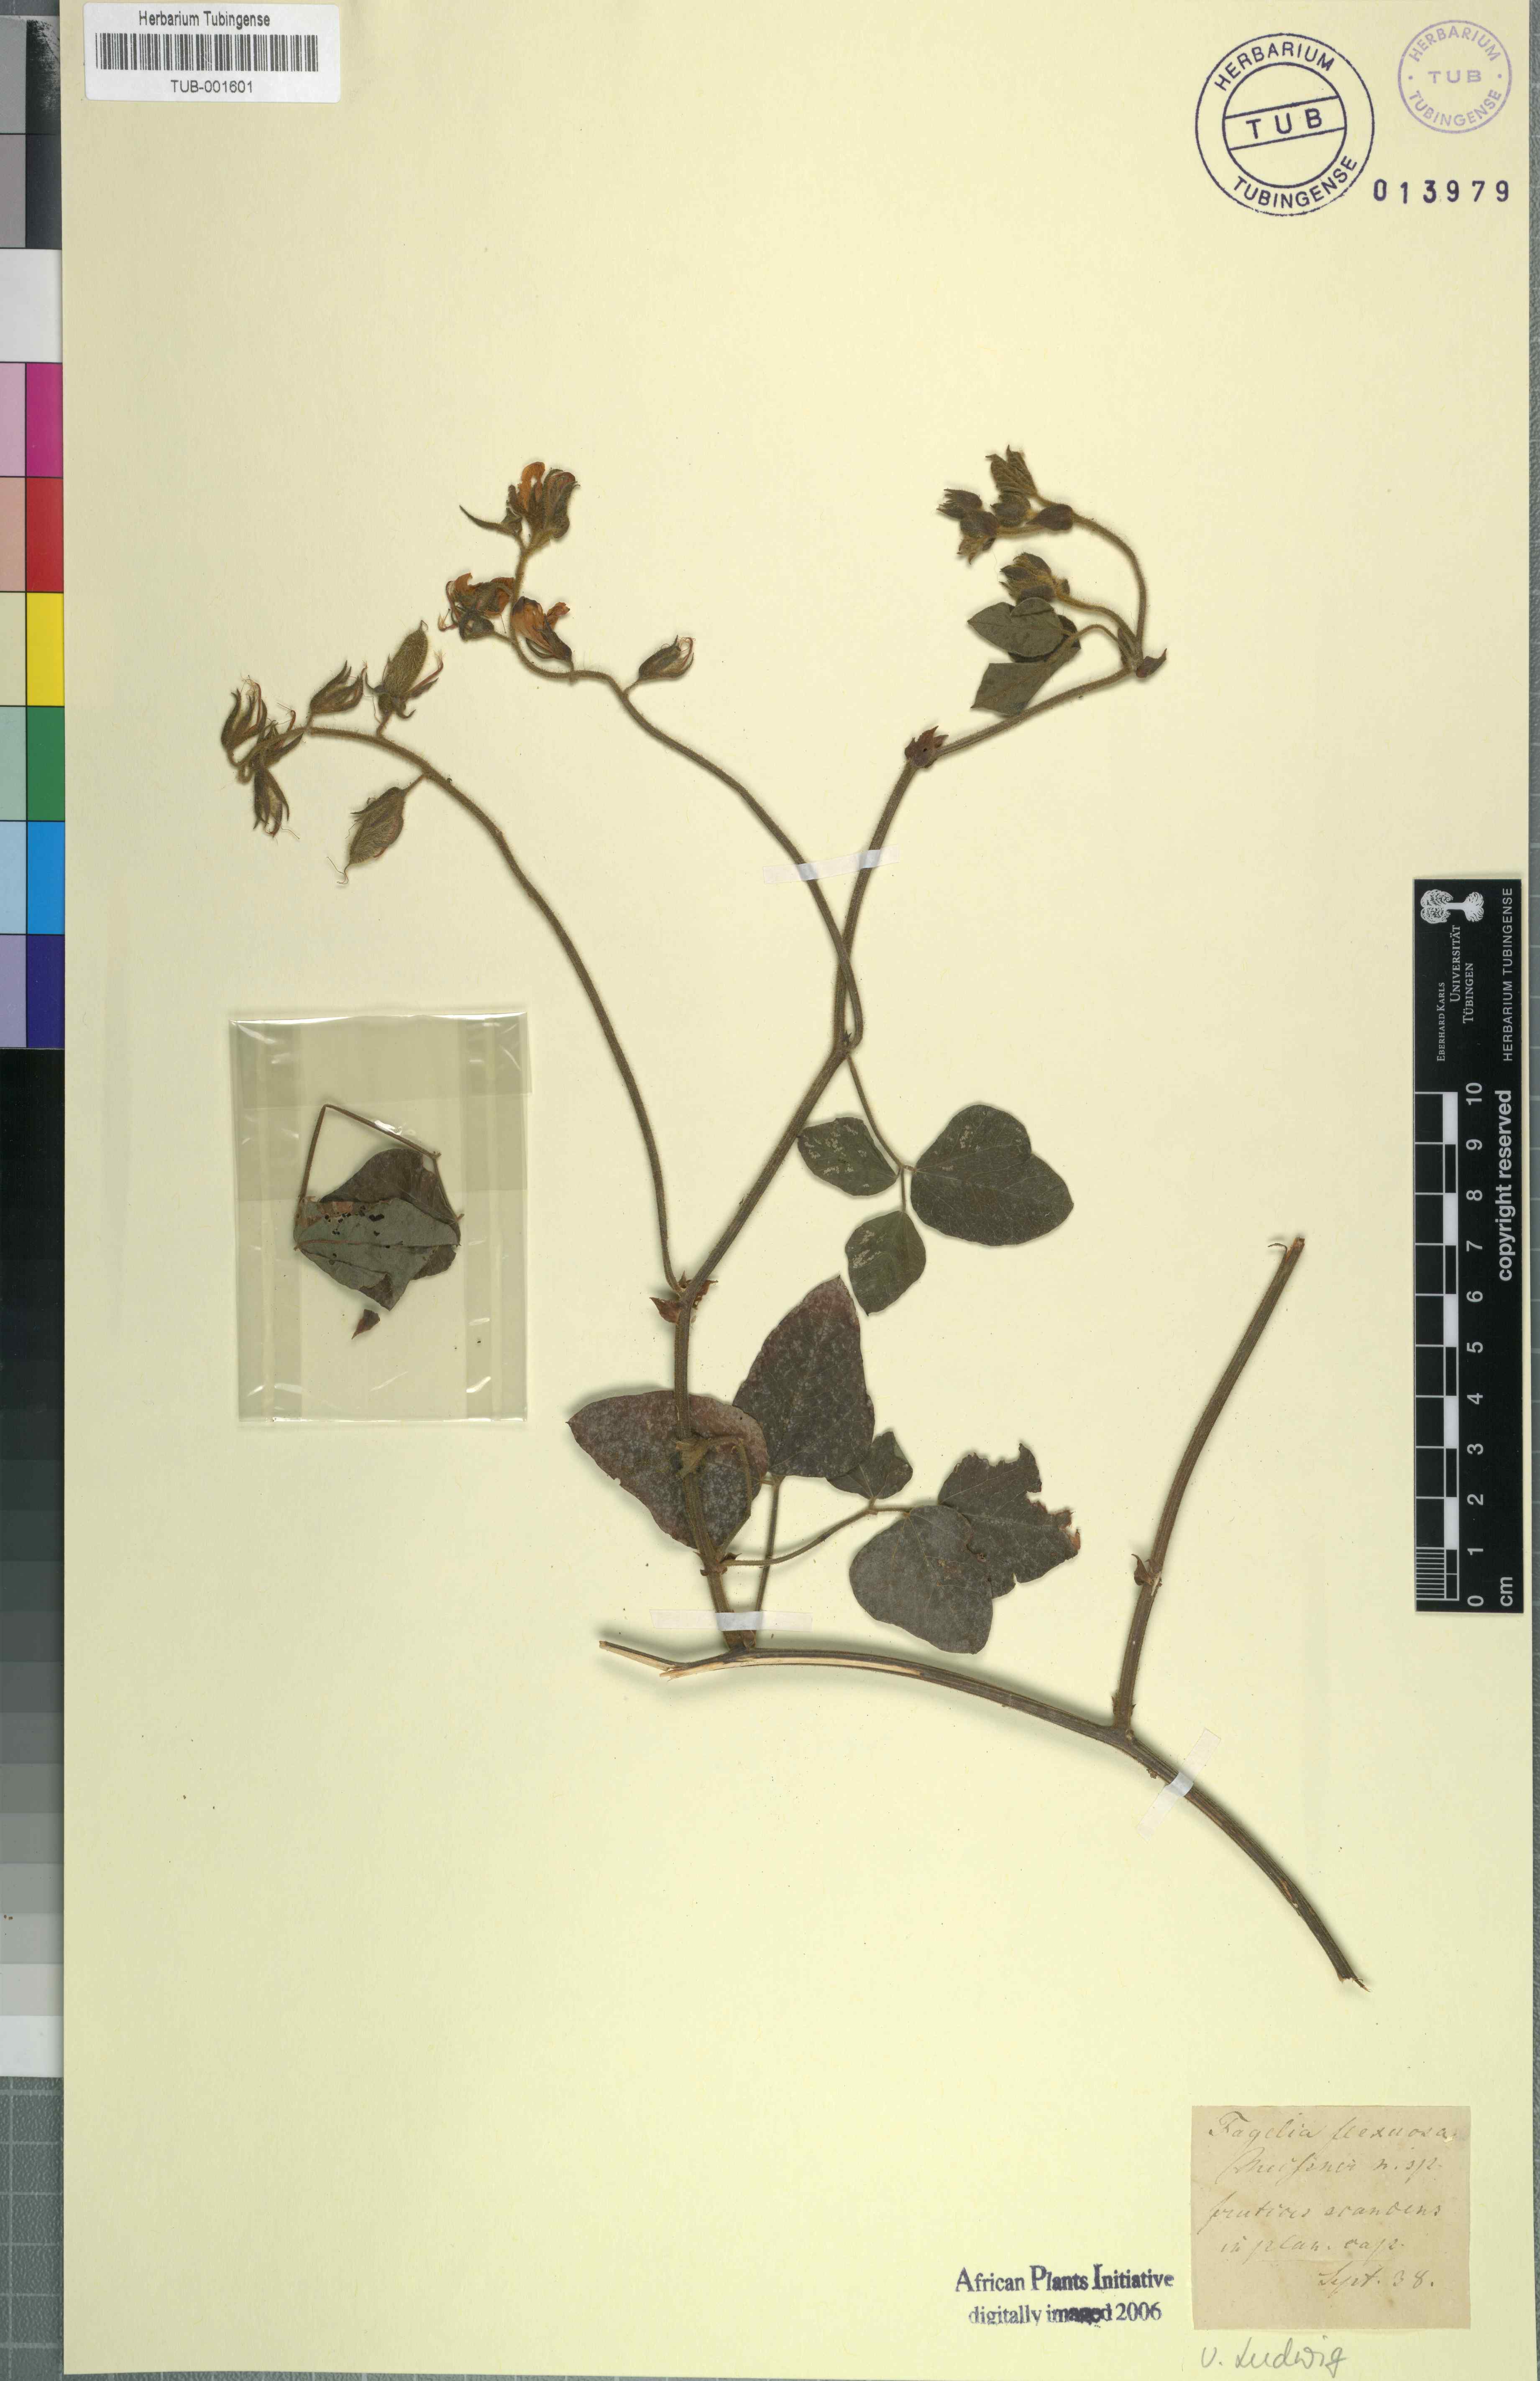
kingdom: Plantae
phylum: Tracheophyta
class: Magnoliopsida
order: Fabales
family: Fabaceae
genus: Bolusafra
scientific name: Bolusafra bituminosa
